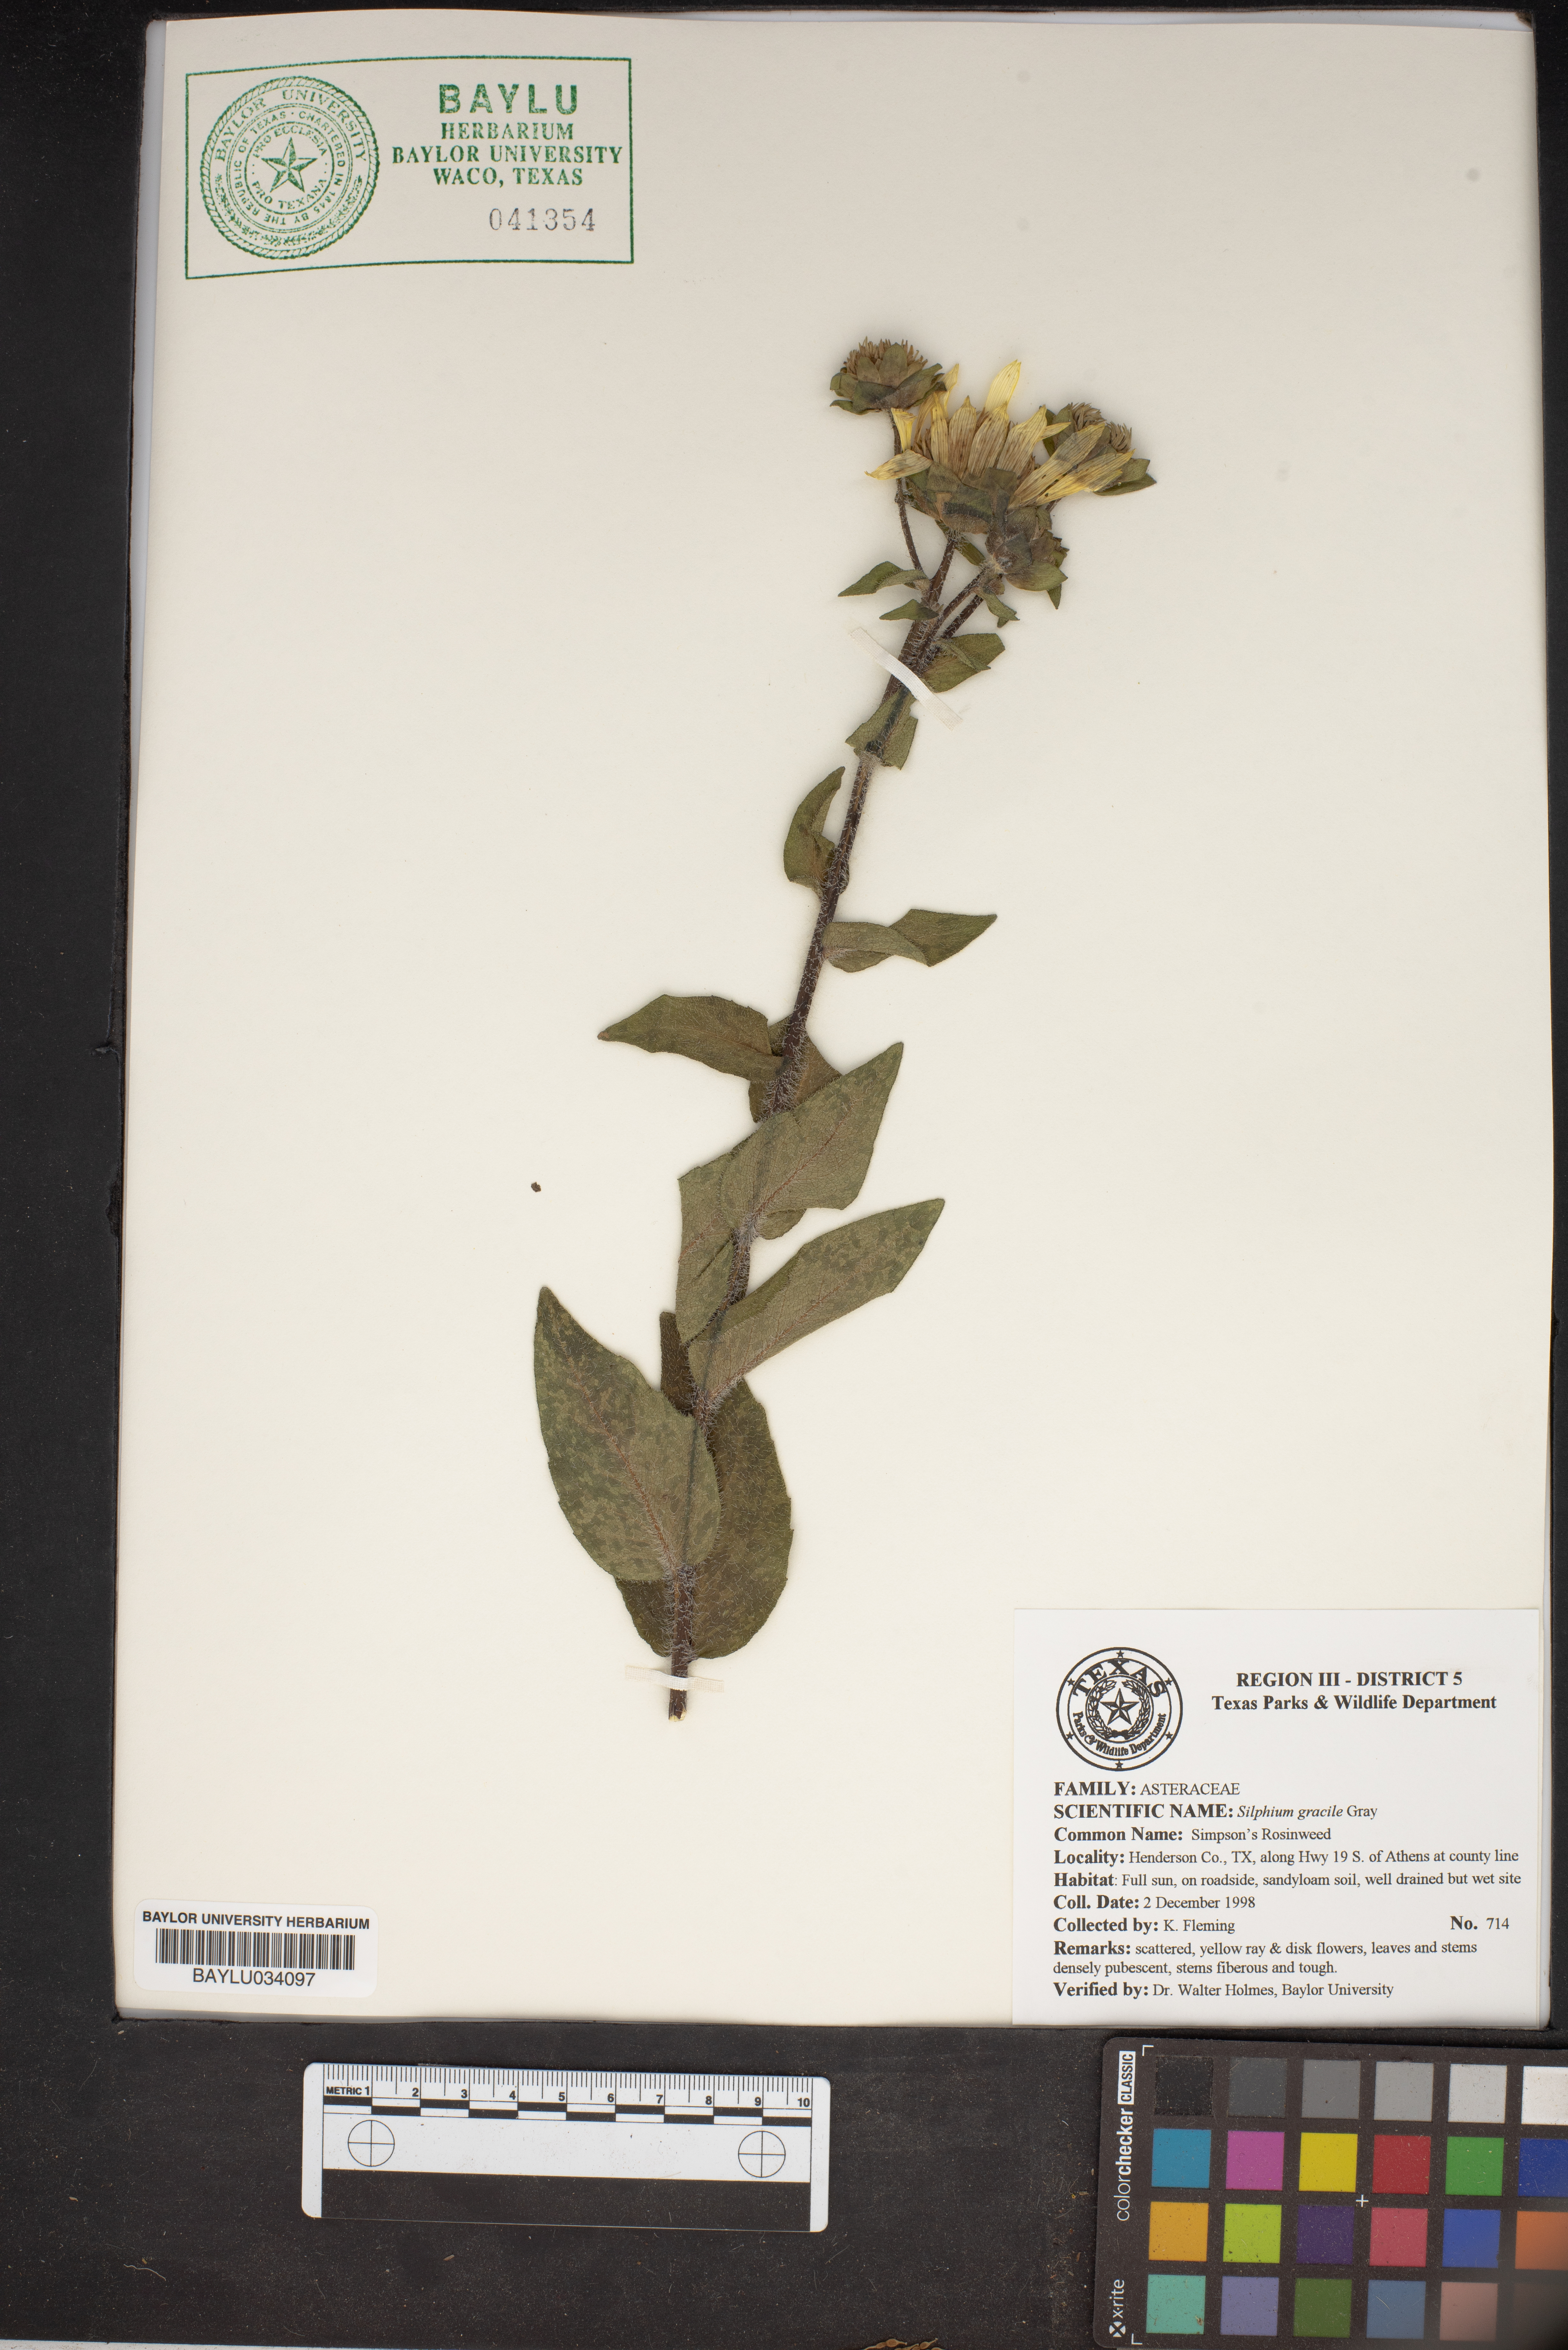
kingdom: Plantae
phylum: Tracheophyta
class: Magnoliopsida
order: Asterales
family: Asteraceae
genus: Silphium
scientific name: Silphium radula
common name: Roughleaf rosinweed
